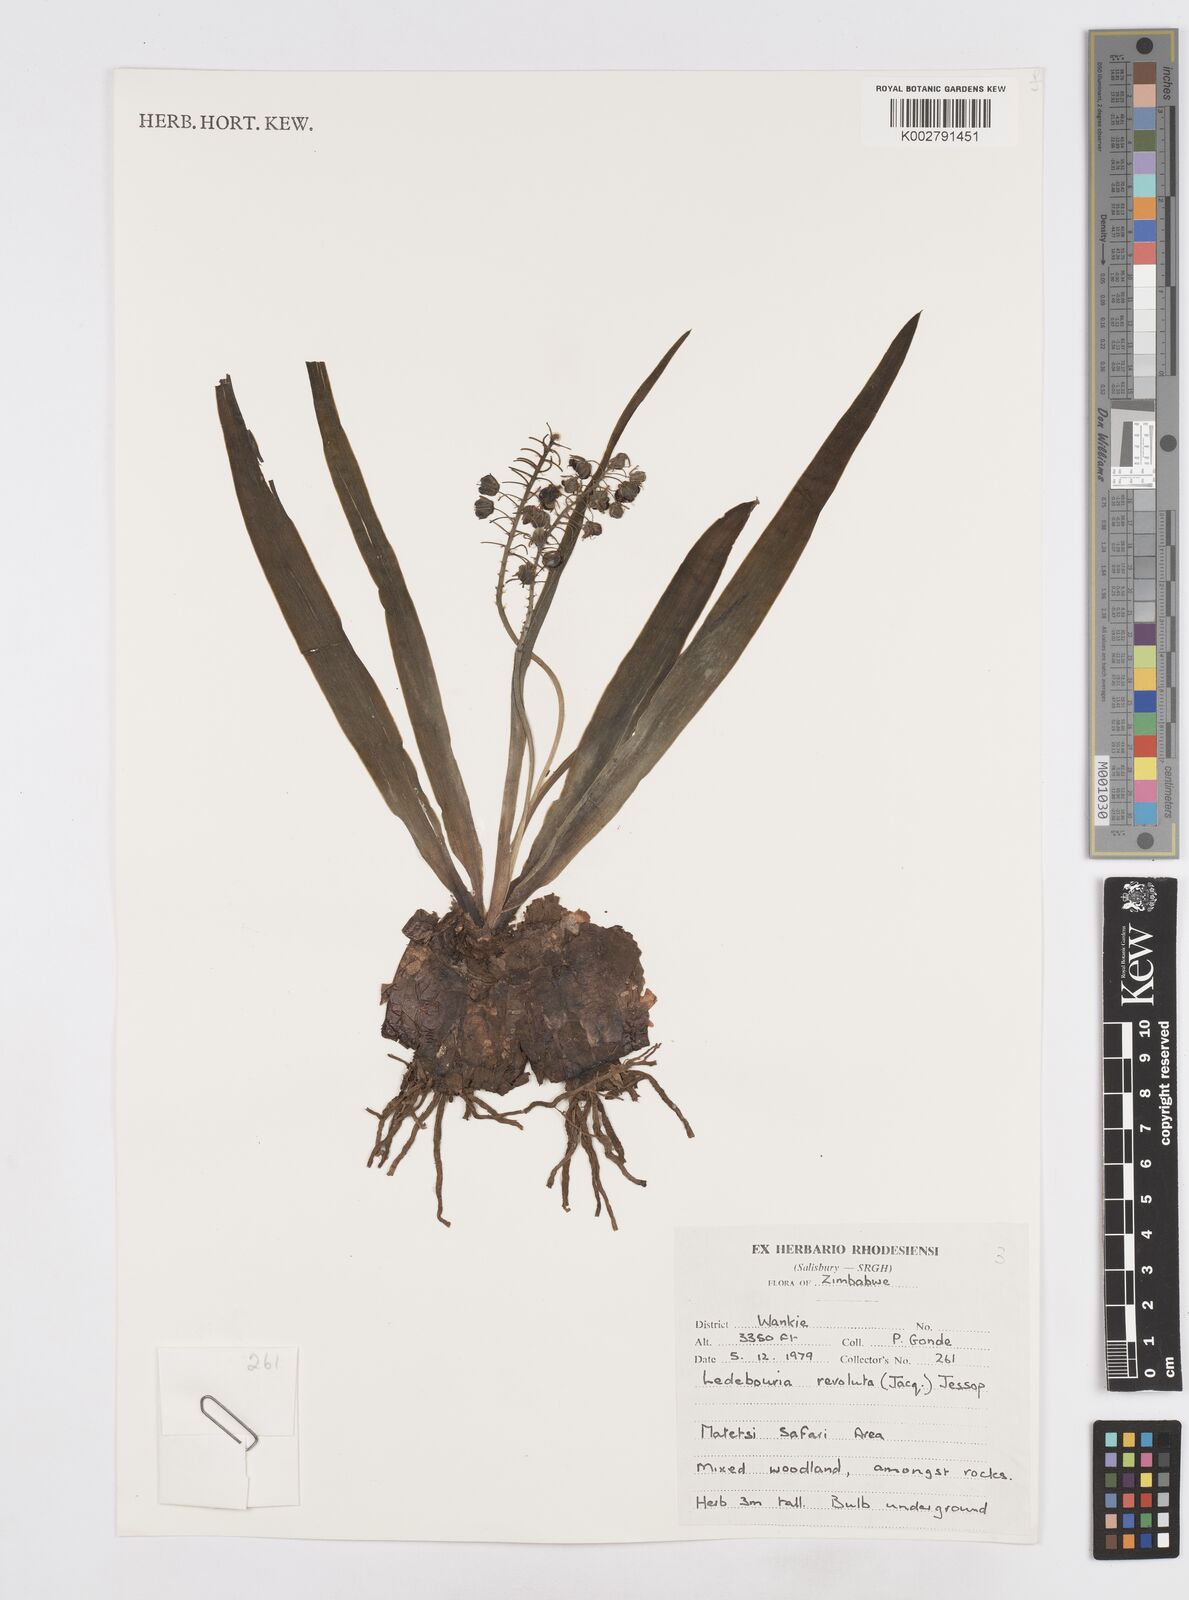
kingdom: Plantae
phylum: Tracheophyta
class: Liliopsida
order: Asparagales
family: Asparagaceae
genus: Ledebouria
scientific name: Ledebouria revoluta
